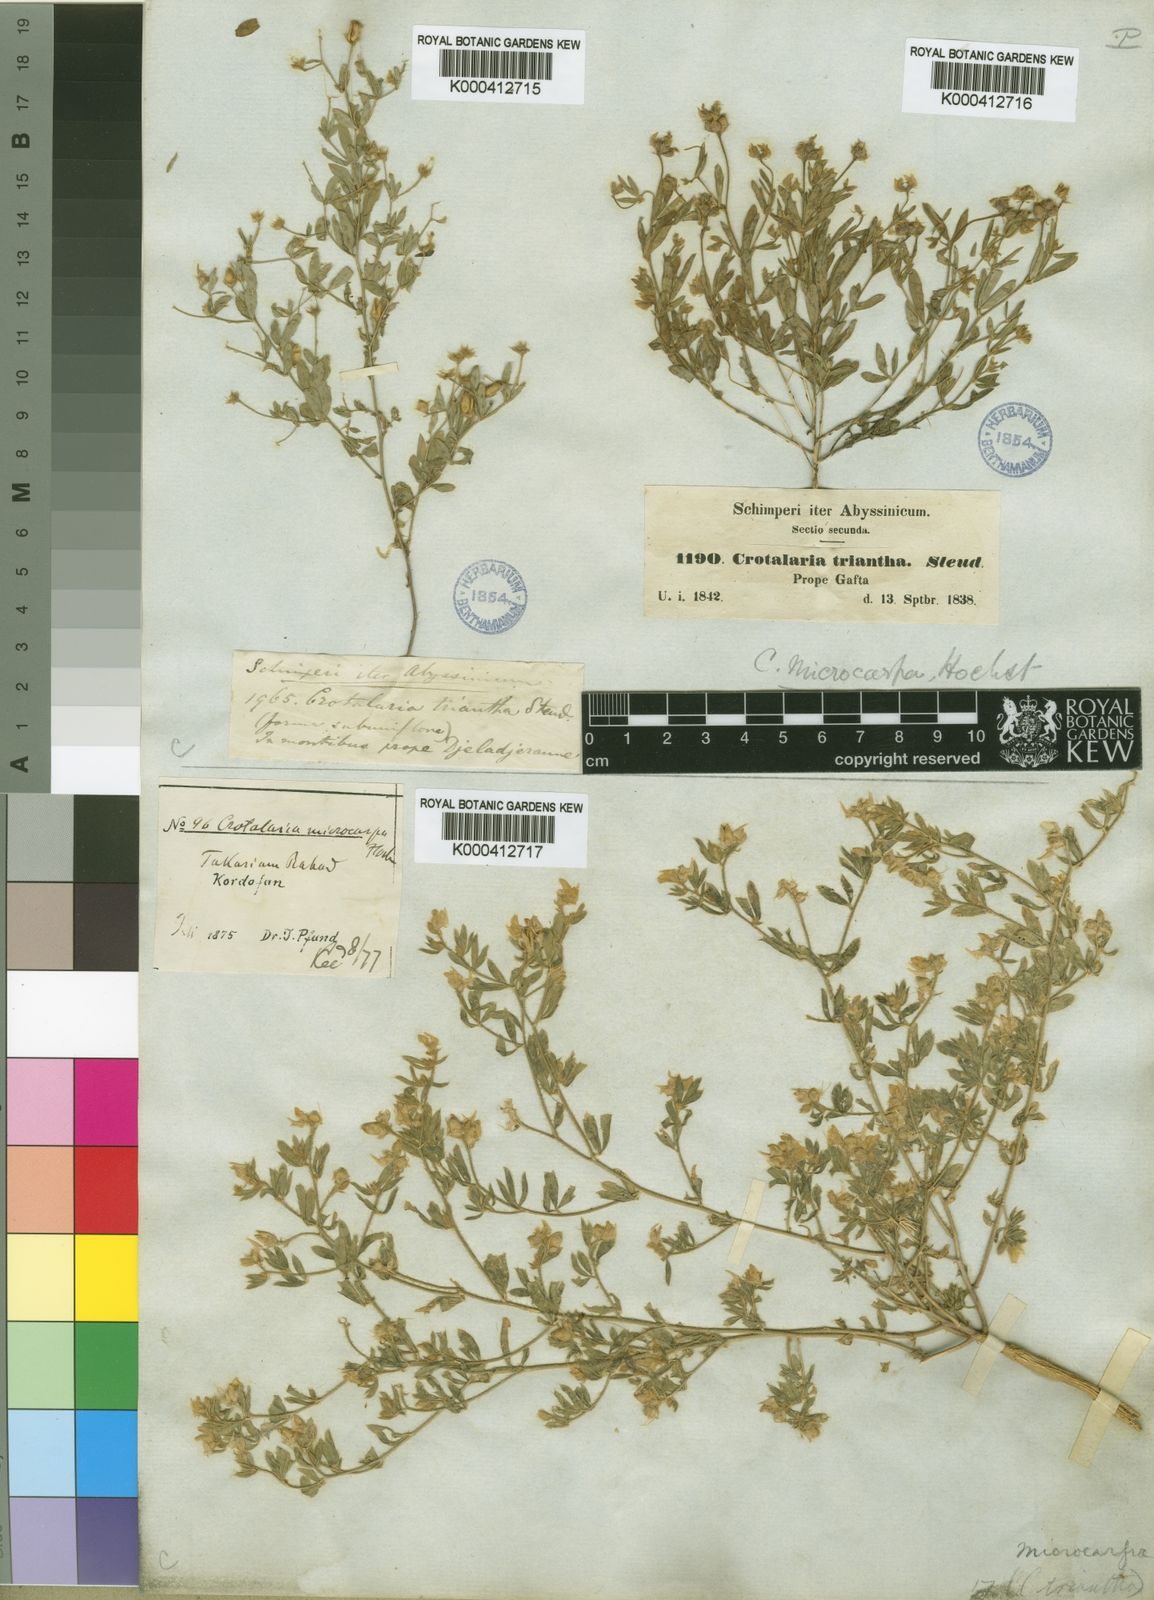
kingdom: Plantae
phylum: Tracheophyta
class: Magnoliopsida
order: Fabales
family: Fabaceae
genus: Crotalaria
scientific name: Crotalaria microcarpa
